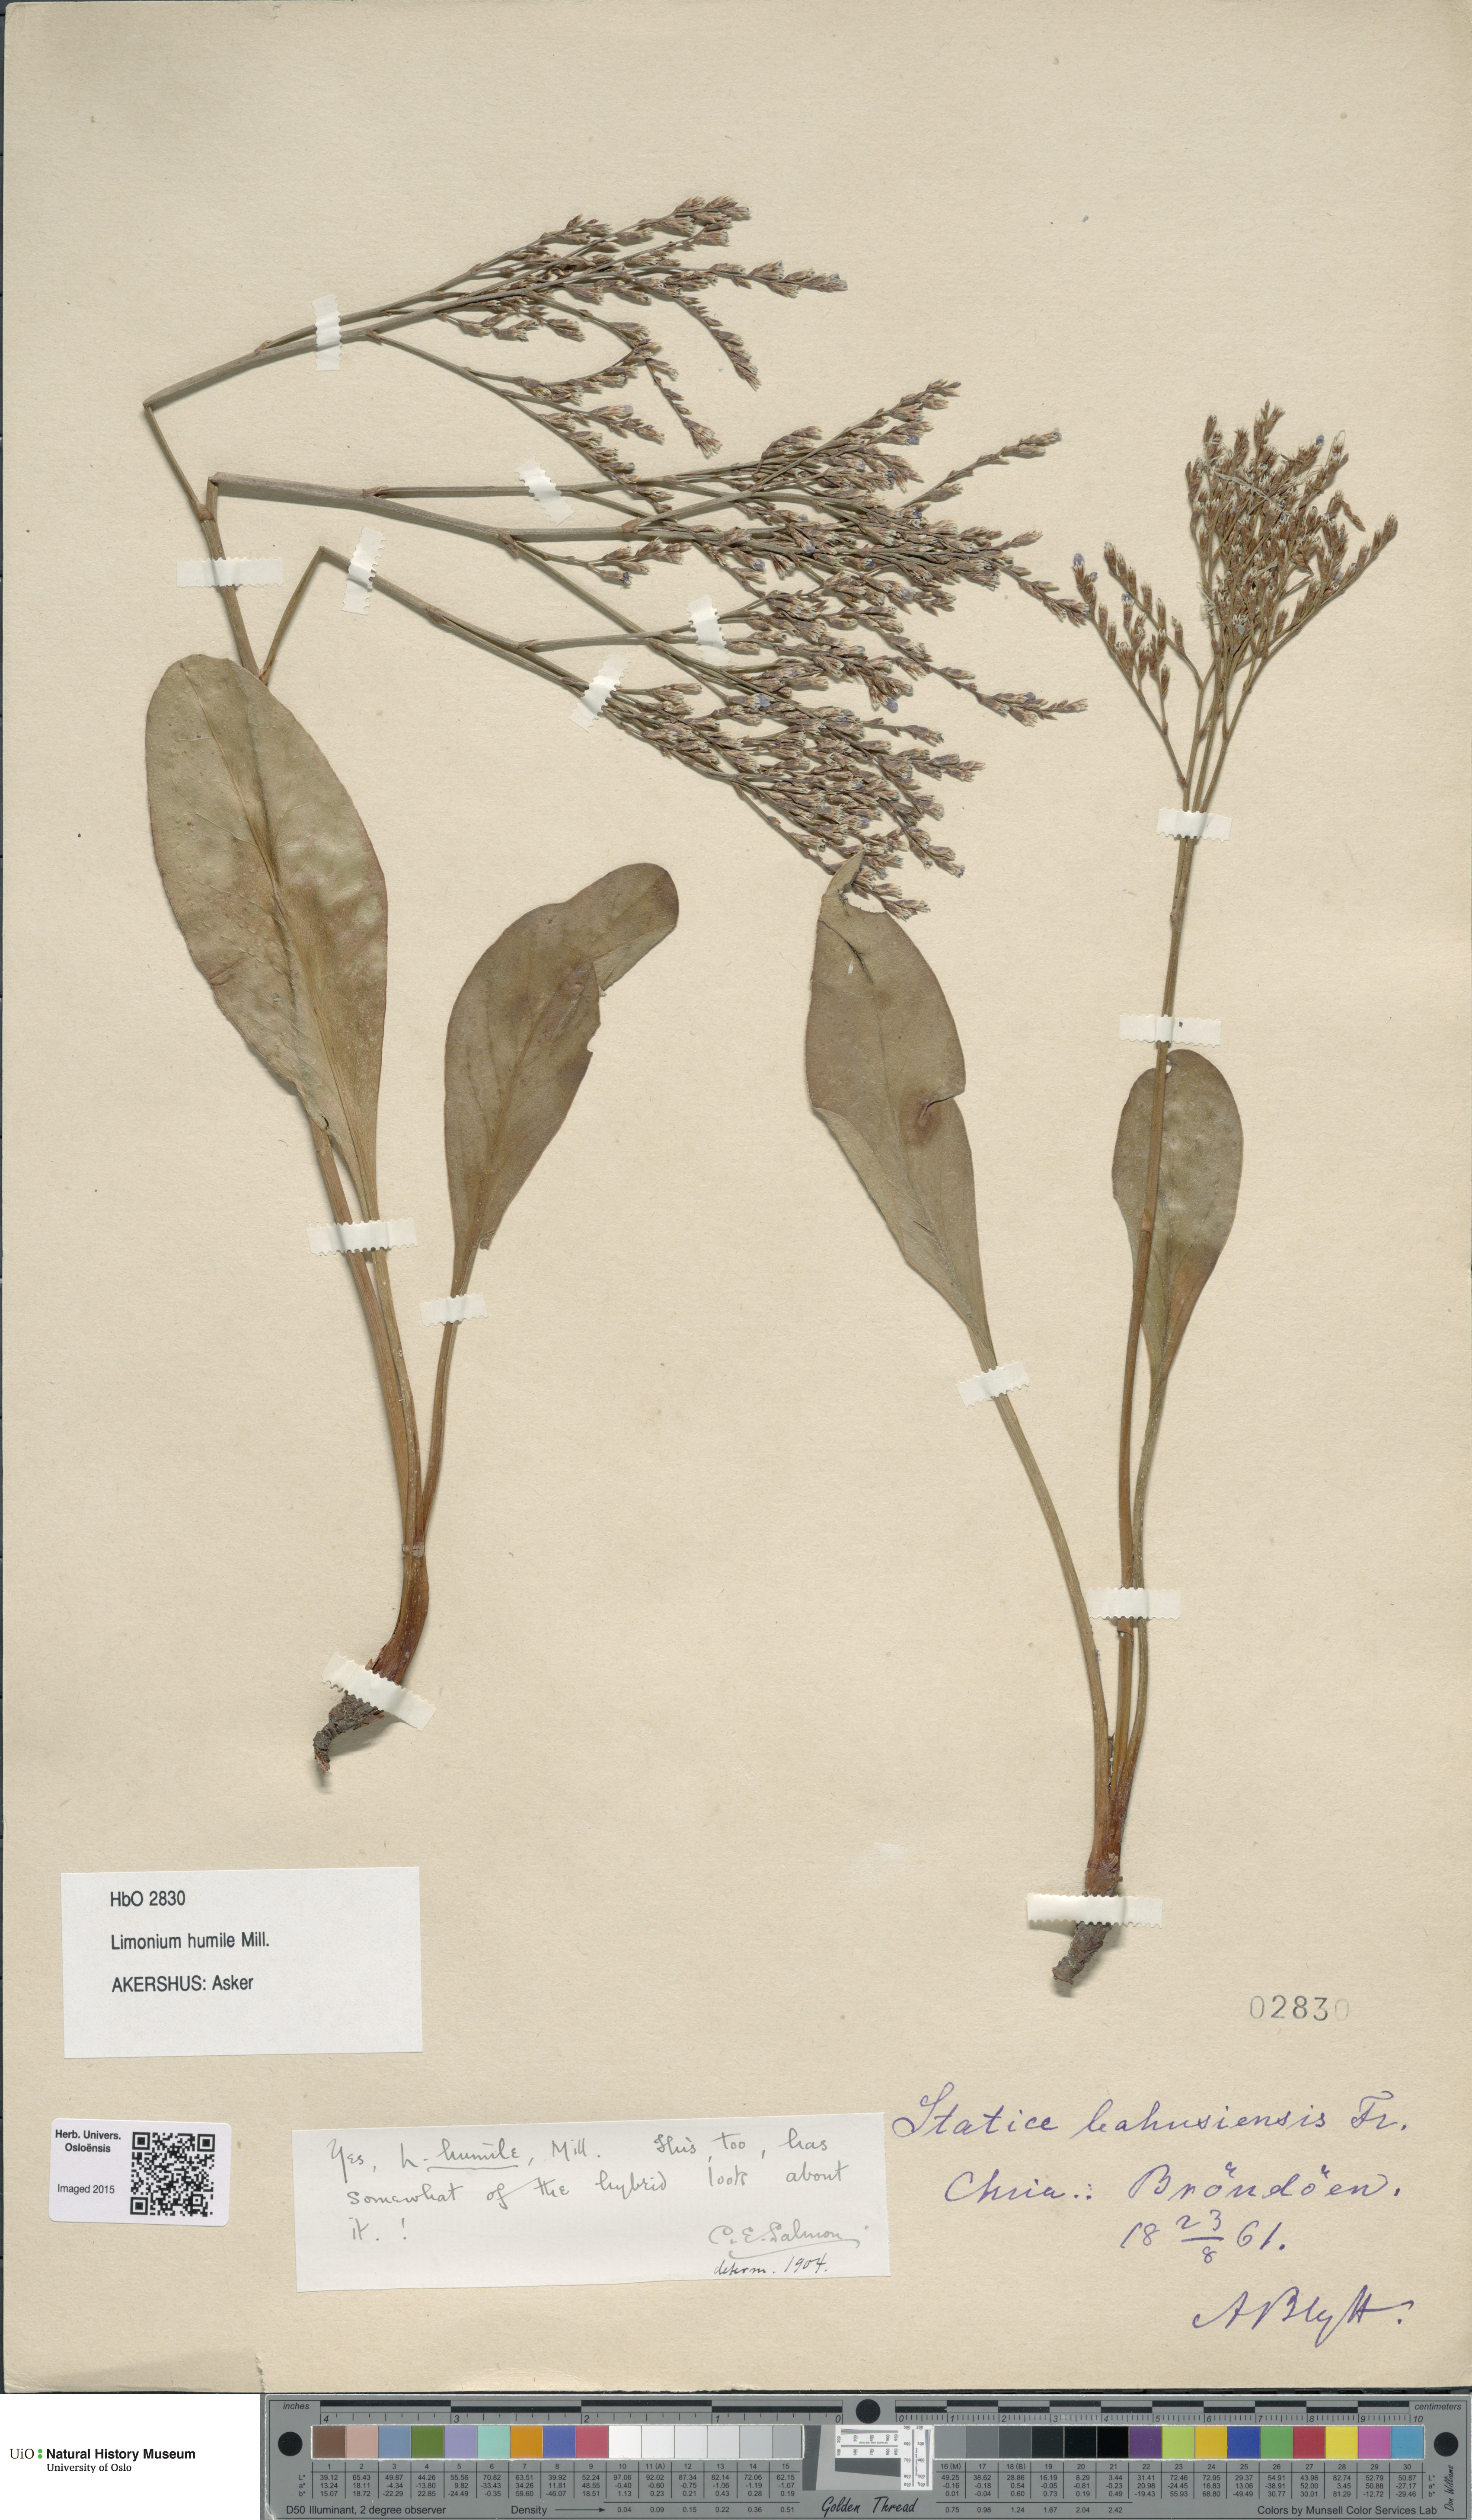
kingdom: Plantae
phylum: Tracheophyta
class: Magnoliopsida
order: Caryophyllales
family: Plumbaginaceae
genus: Limonium
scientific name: Limonium humile
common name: Lax-flowered sea-lavender
